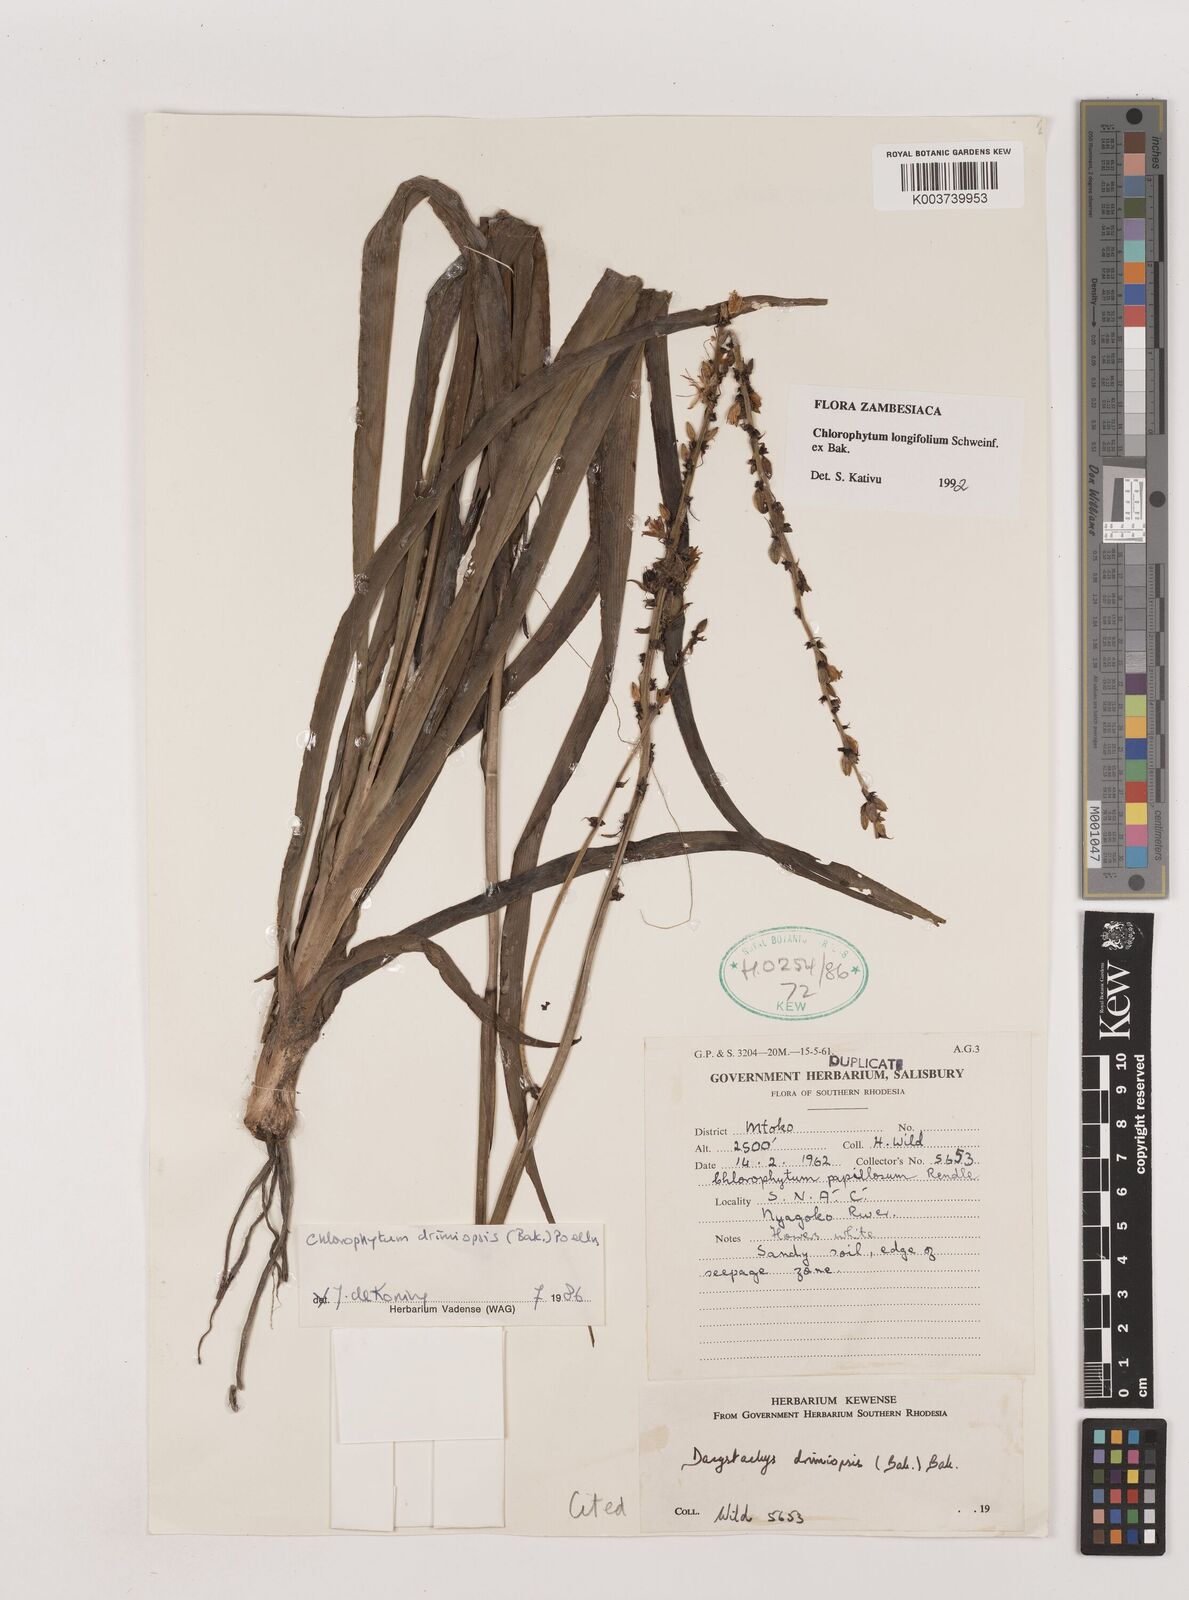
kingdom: Plantae
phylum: Tracheophyta
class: Liliopsida
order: Asparagales
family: Asparagaceae
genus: Chlorophytum
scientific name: Chlorophytum longifolium
